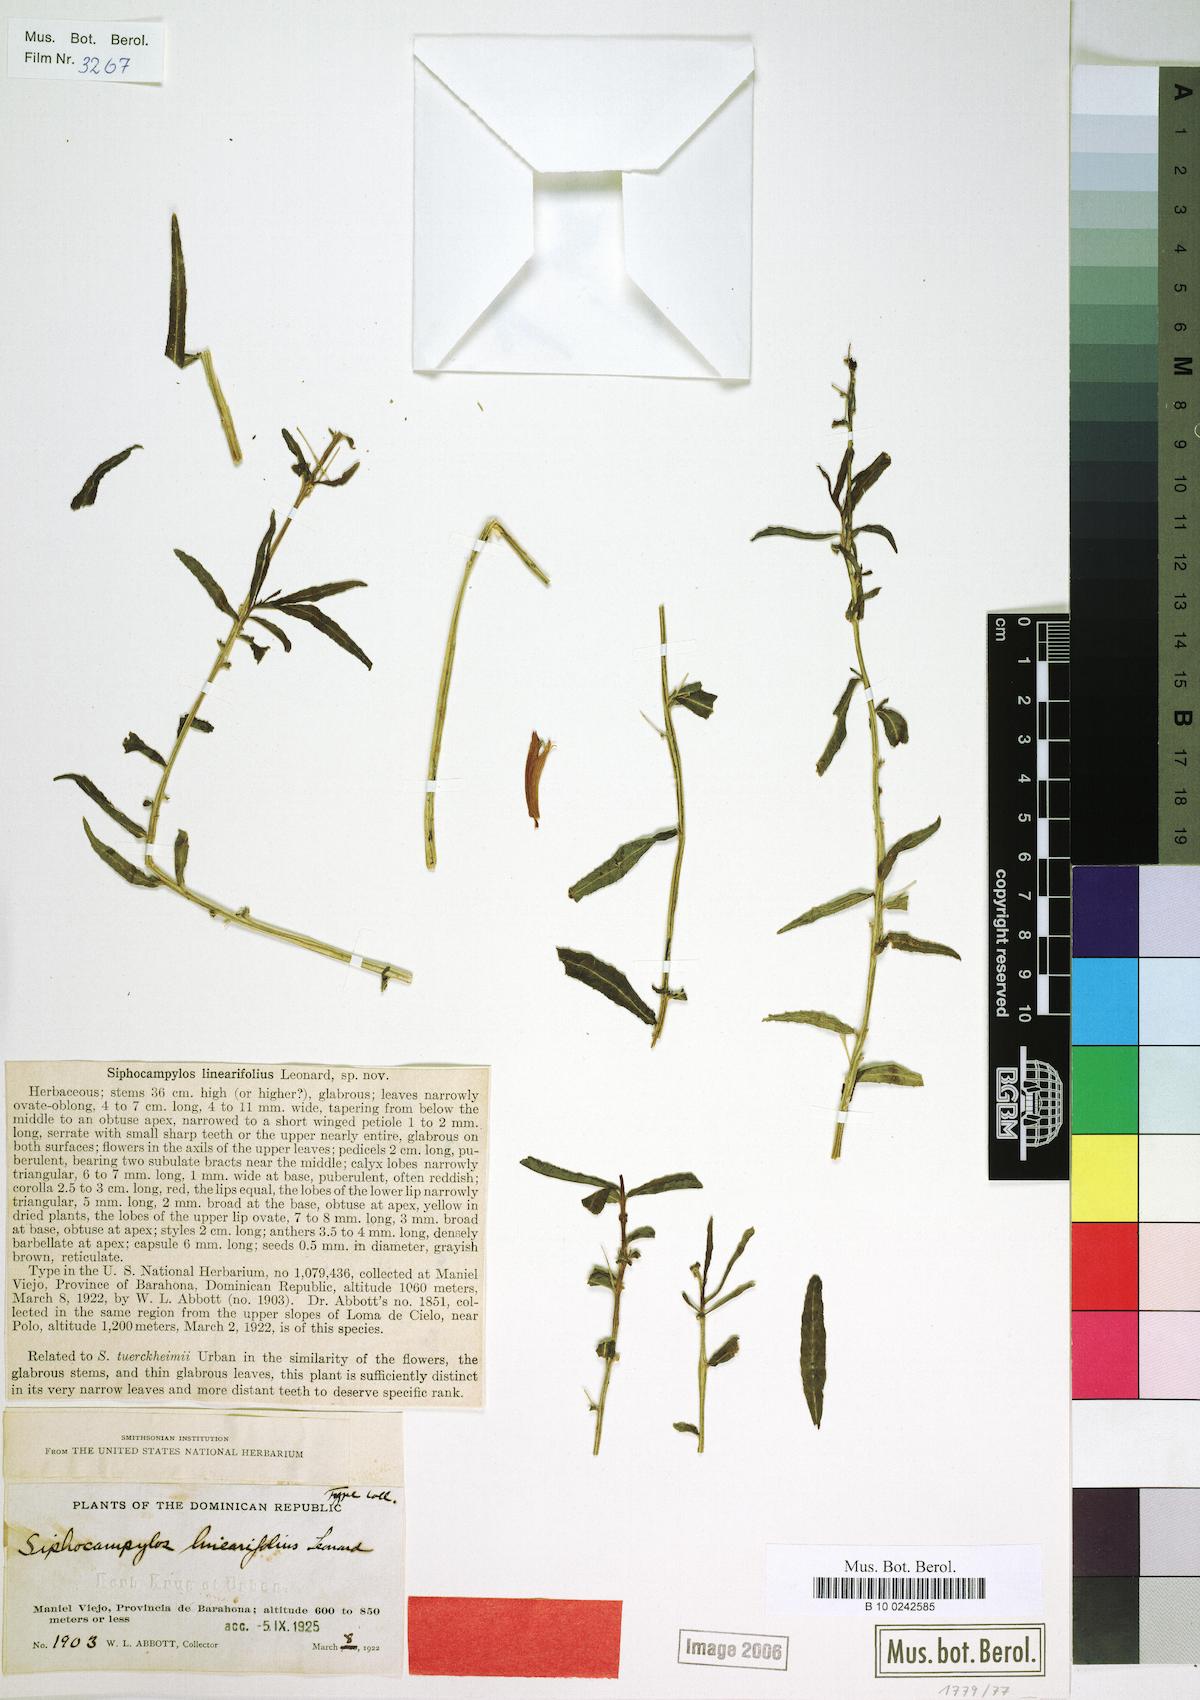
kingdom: Plantae
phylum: Tracheophyta
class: Magnoliopsida
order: Asterales
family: Campanulaceae
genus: Siphocampylus
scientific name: Siphocampylus sonchifolius
